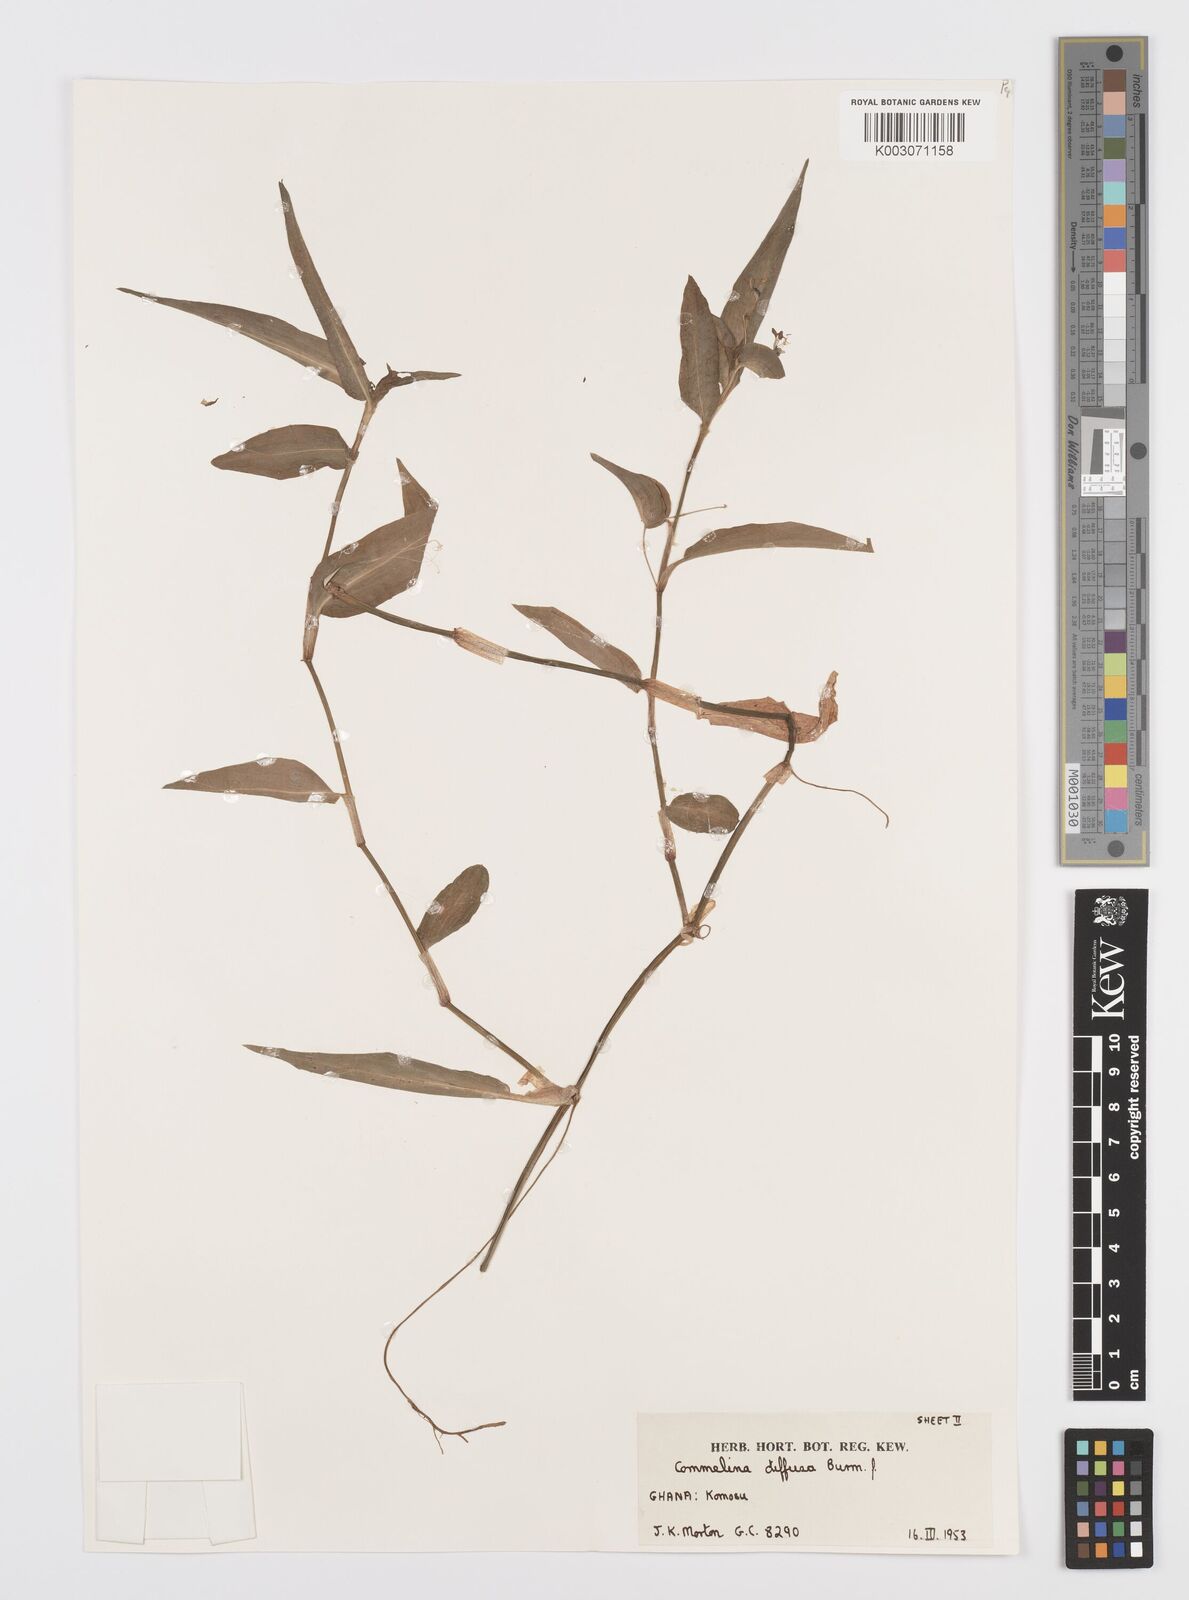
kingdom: Plantae
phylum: Tracheophyta
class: Liliopsida
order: Commelinales
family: Commelinaceae
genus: Commelina
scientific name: Commelina diffusa
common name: Climbing dayflower
